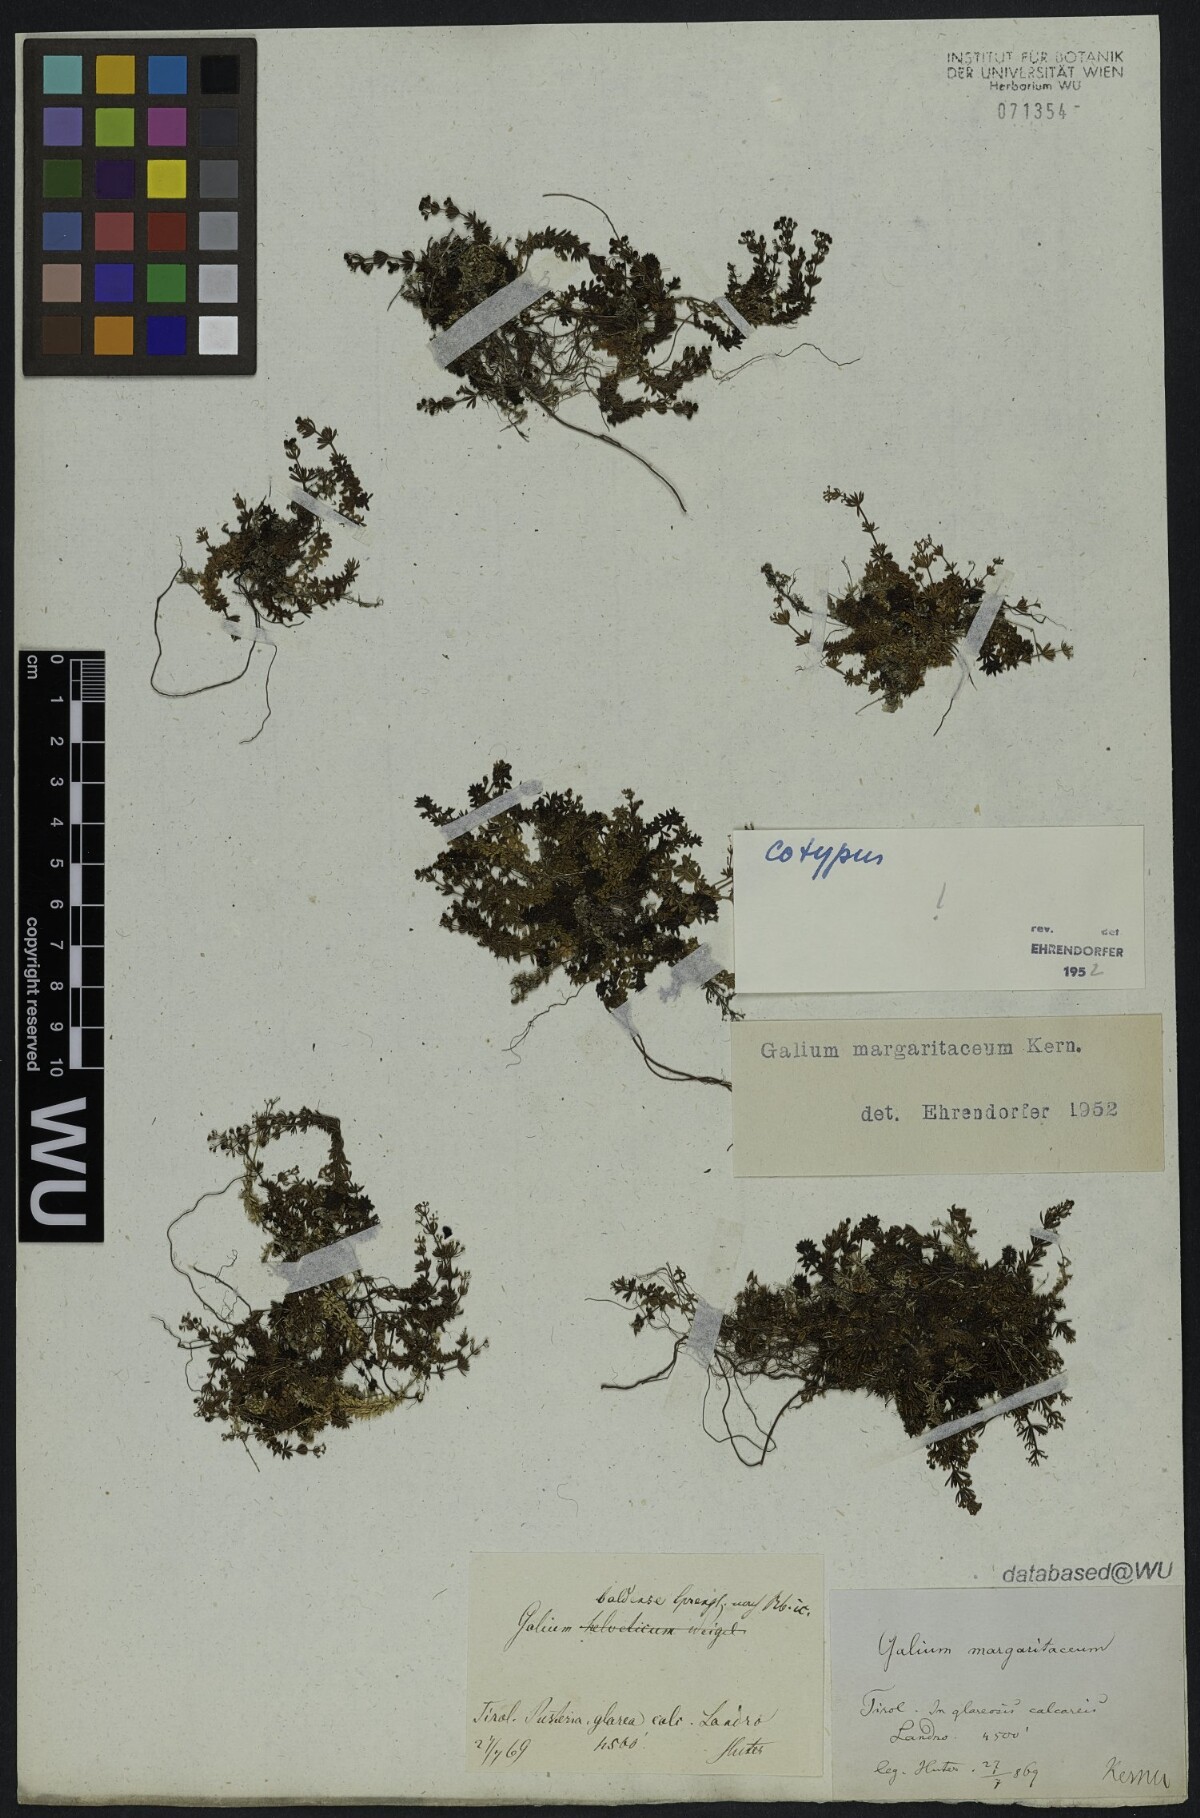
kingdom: Plantae
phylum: Tracheophyta
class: Magnoliopsida
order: Gentianales
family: Rubiaceae
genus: Galium
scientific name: Galium margaritaceum
